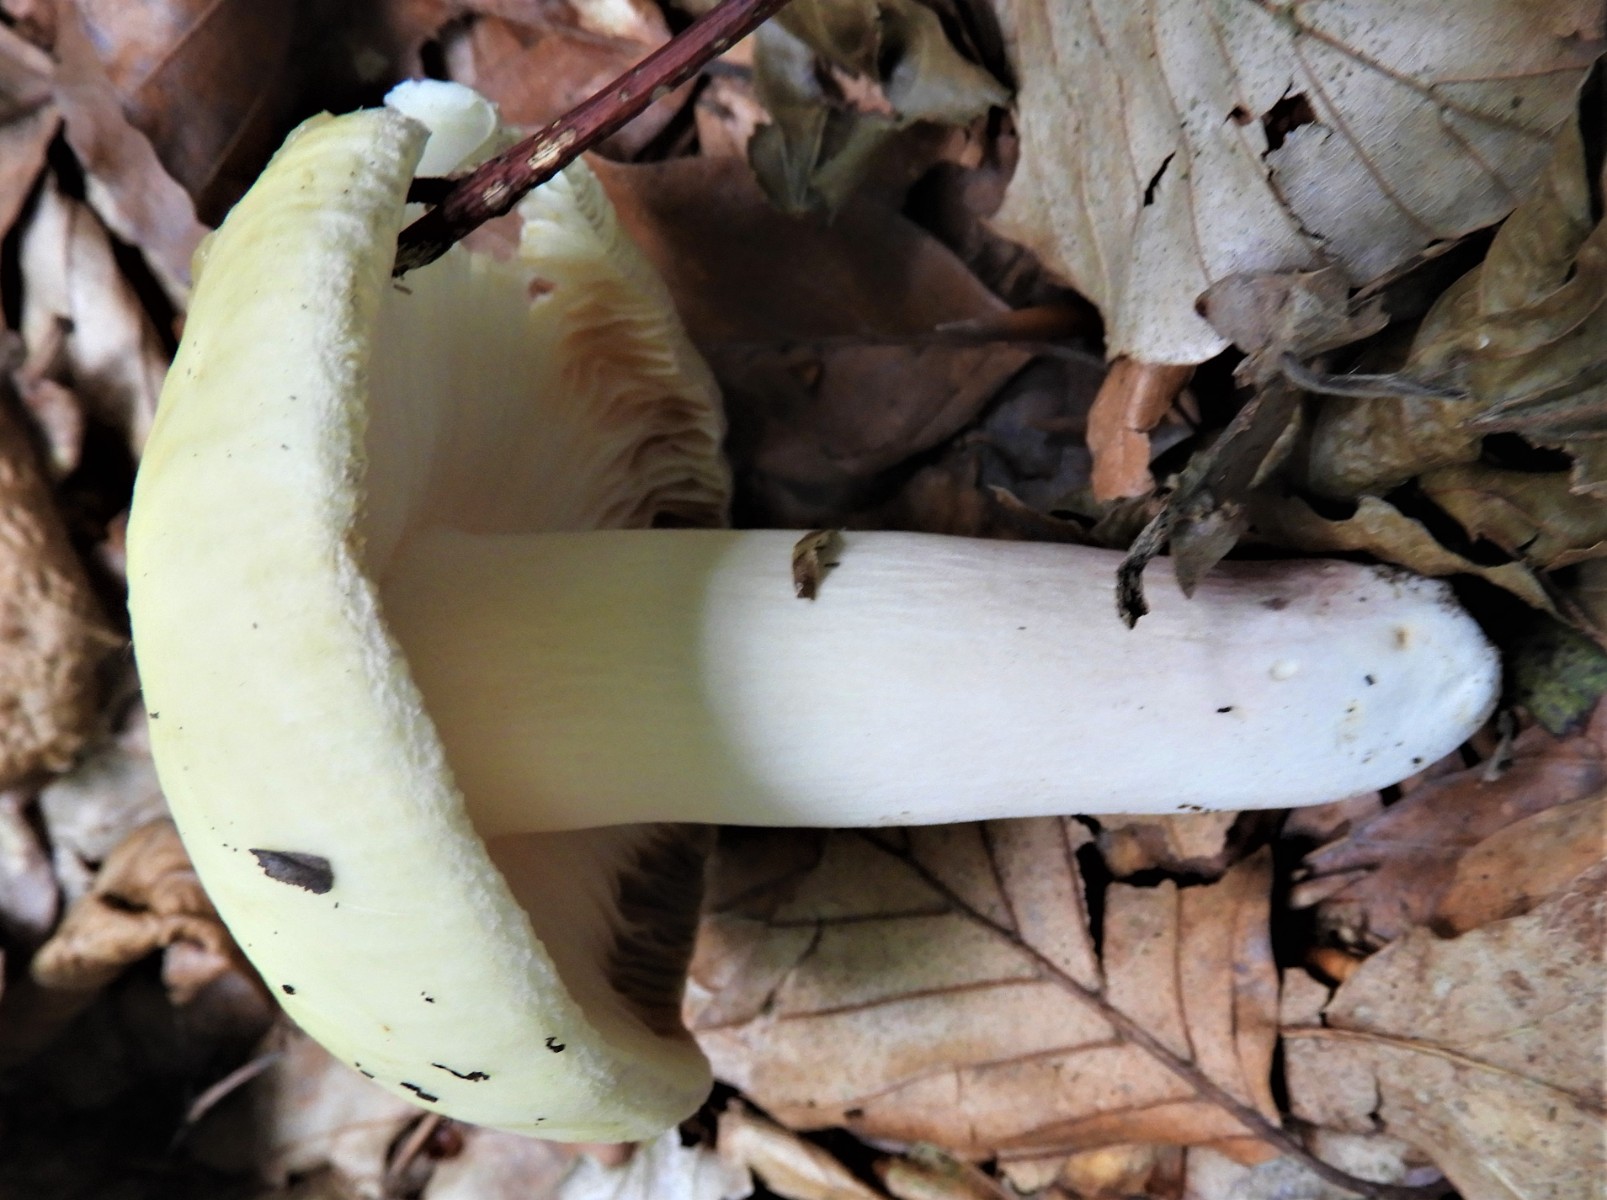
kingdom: Fungi
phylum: Basidiomycota
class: Agaricomycetes
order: Russulales
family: Russulaceae
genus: Russula
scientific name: Russula violeipes
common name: ferskengul skørhat
